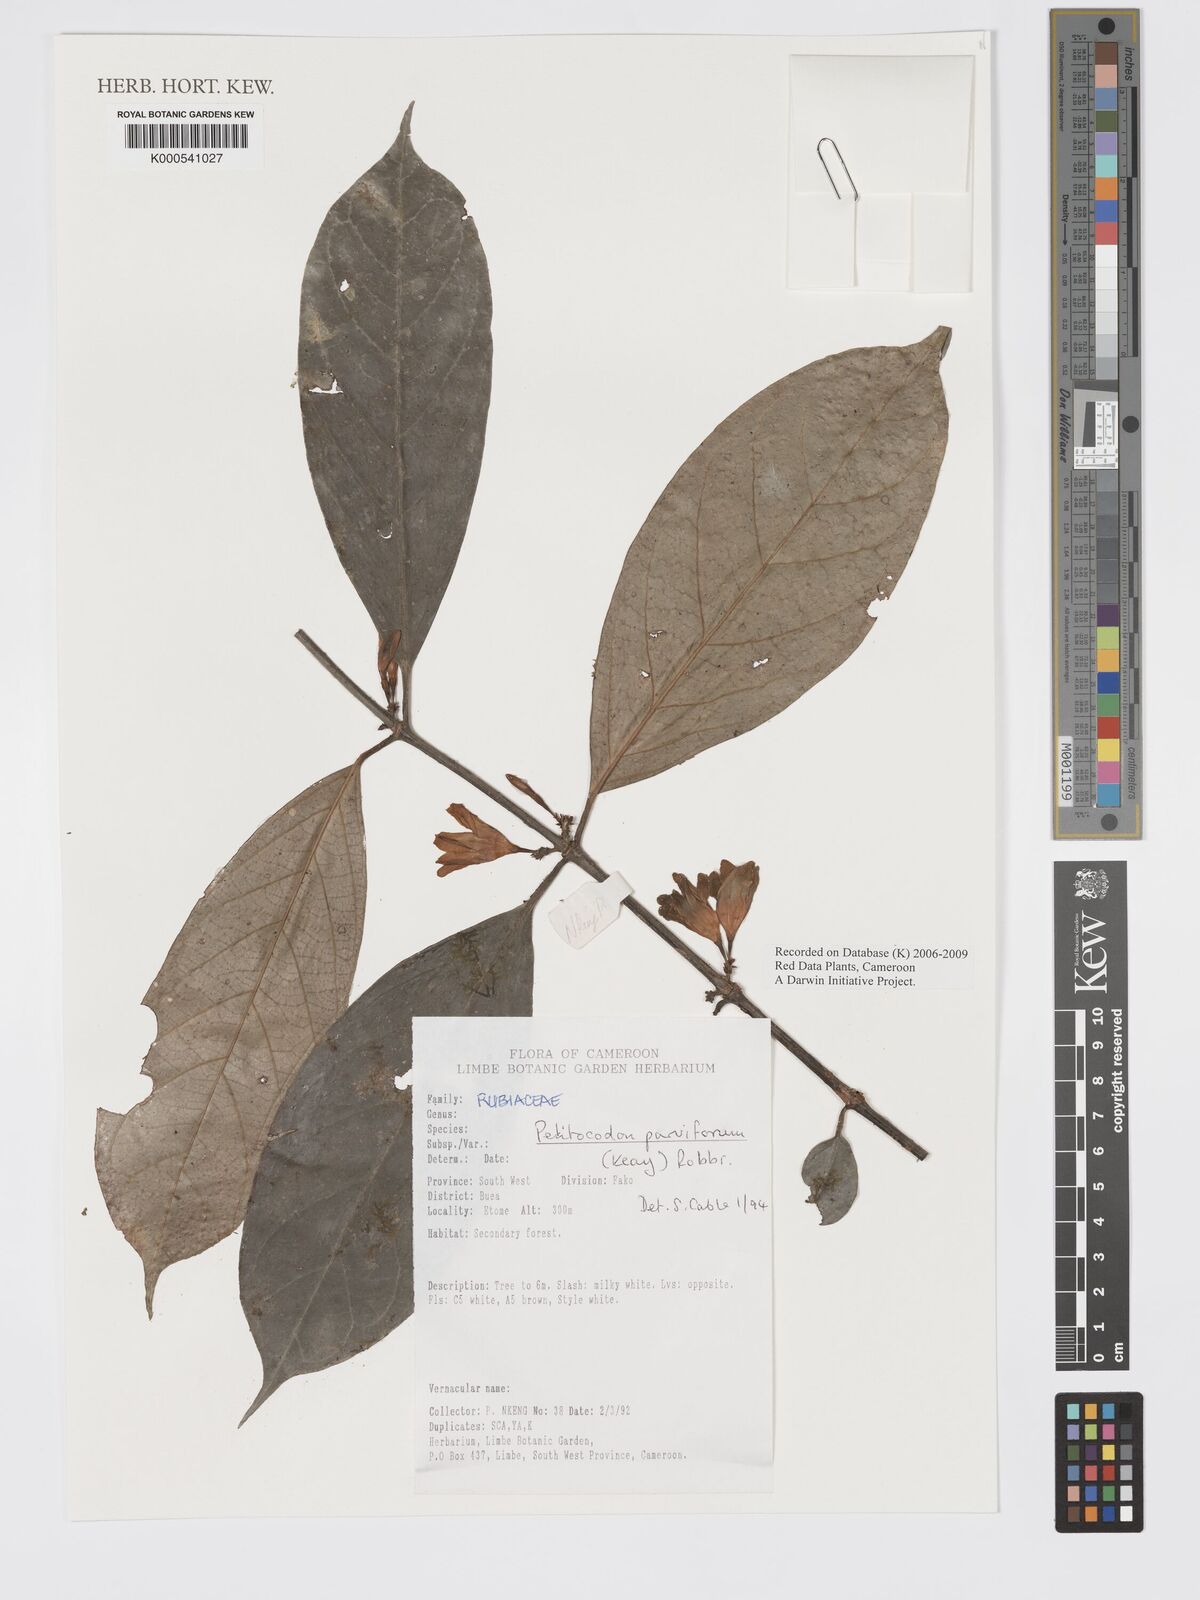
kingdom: Plantae
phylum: Tracheophyta
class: Magnoliopsida
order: Gentianales
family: Rubiaceae
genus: Petitiocodon
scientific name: Petitiocodon parviflorum
